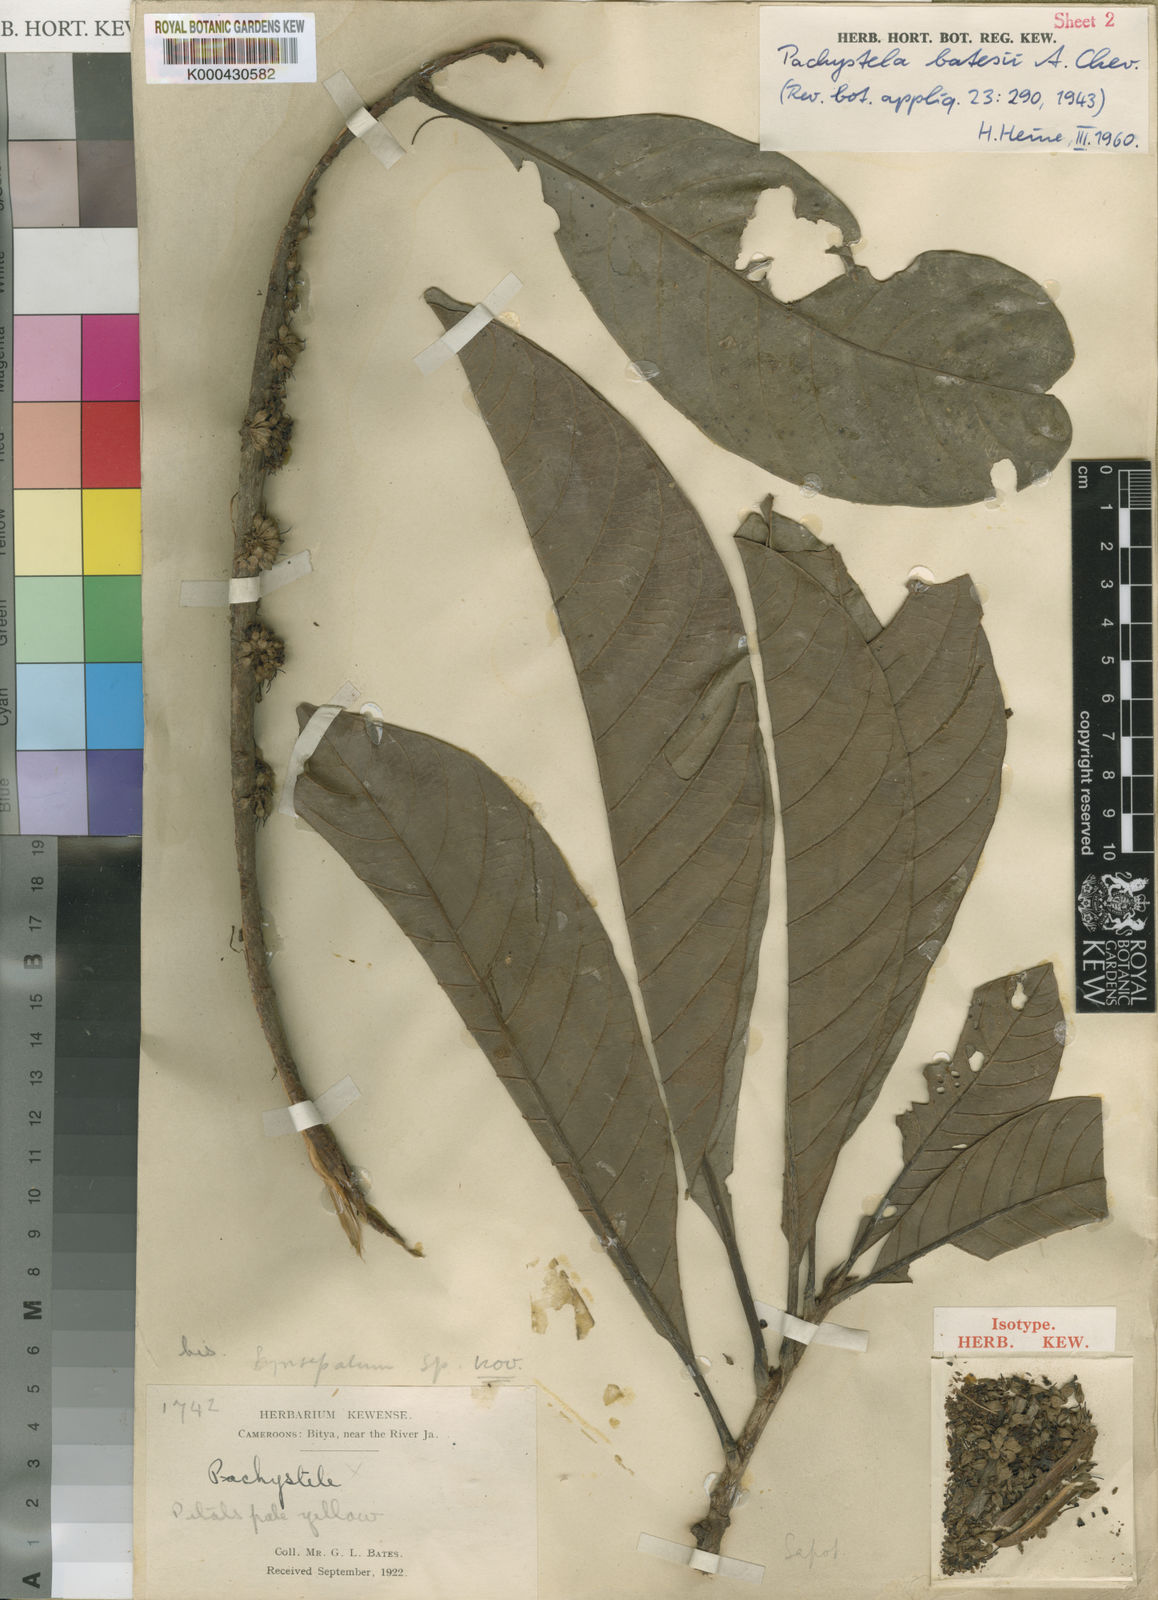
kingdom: Plantae
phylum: Tracheophyta
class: Magnoliopsida
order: Ericales
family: Sapotaceae
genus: Synsepalum
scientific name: Synsepalum
